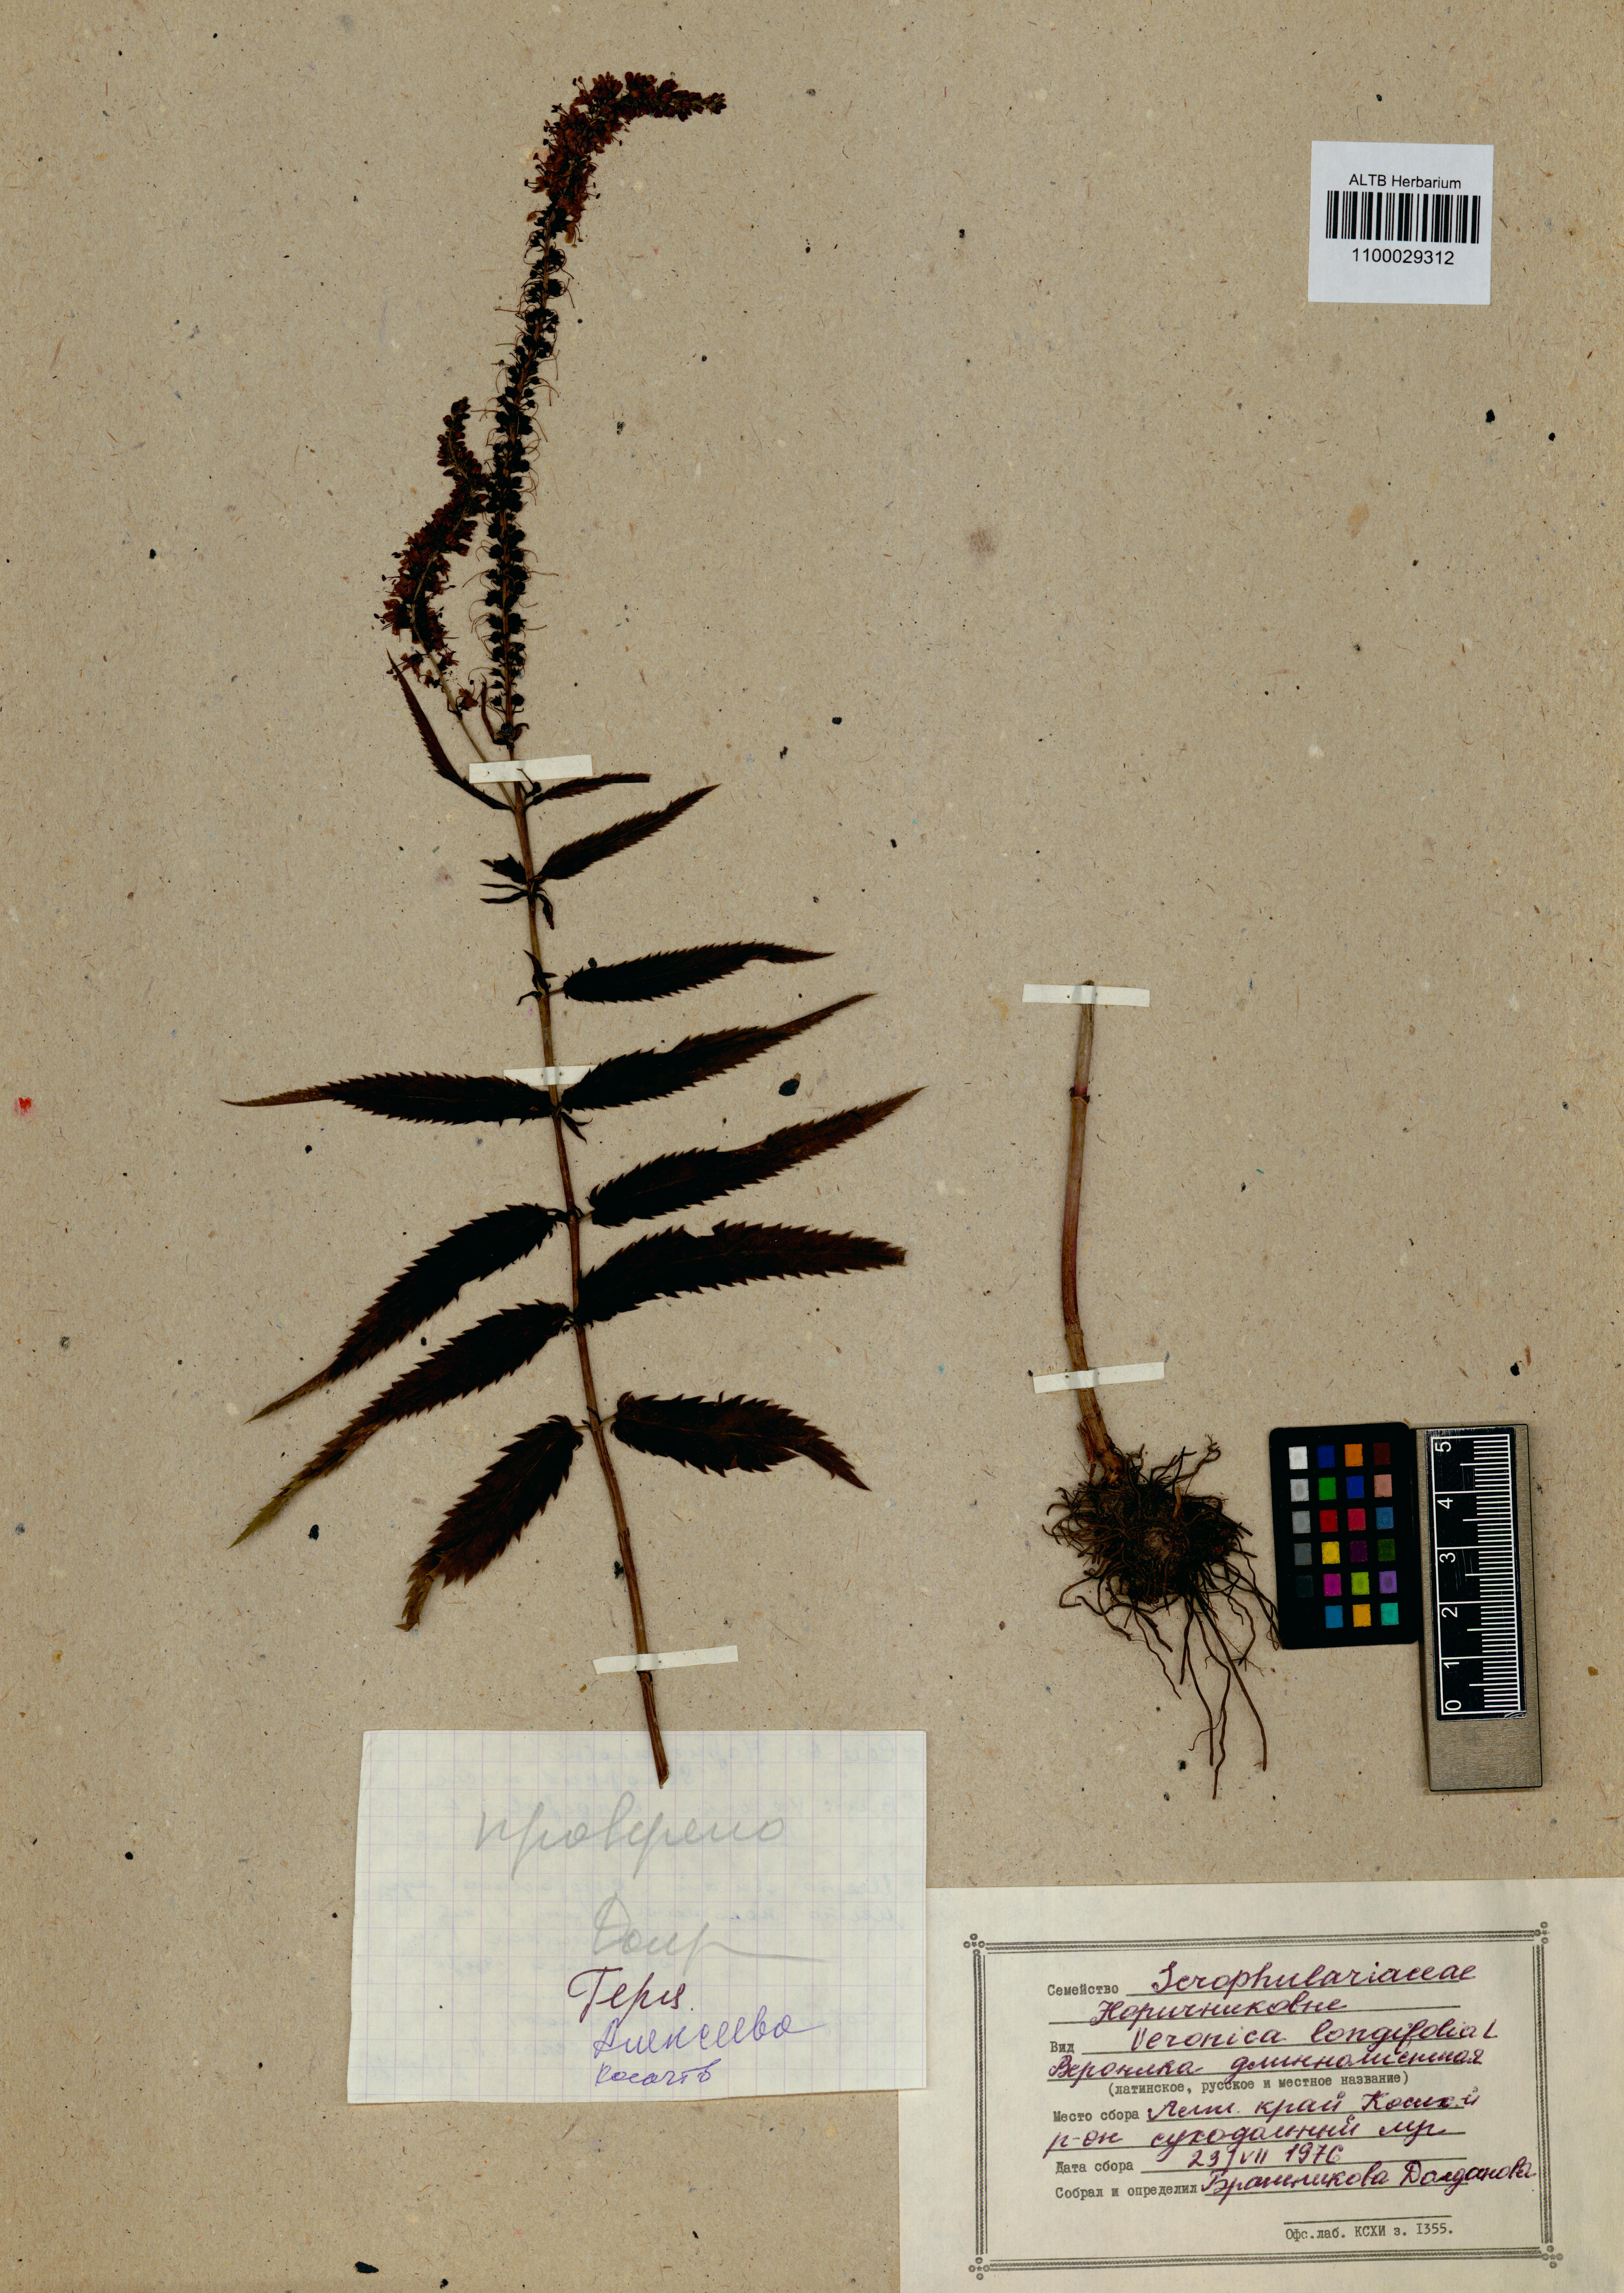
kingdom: Plantae
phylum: Tracheophyta
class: Magnoliopsida
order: Lamiales
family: Plantaginaceae
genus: Veronica
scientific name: Veronica longifolia
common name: Garden speedwell
